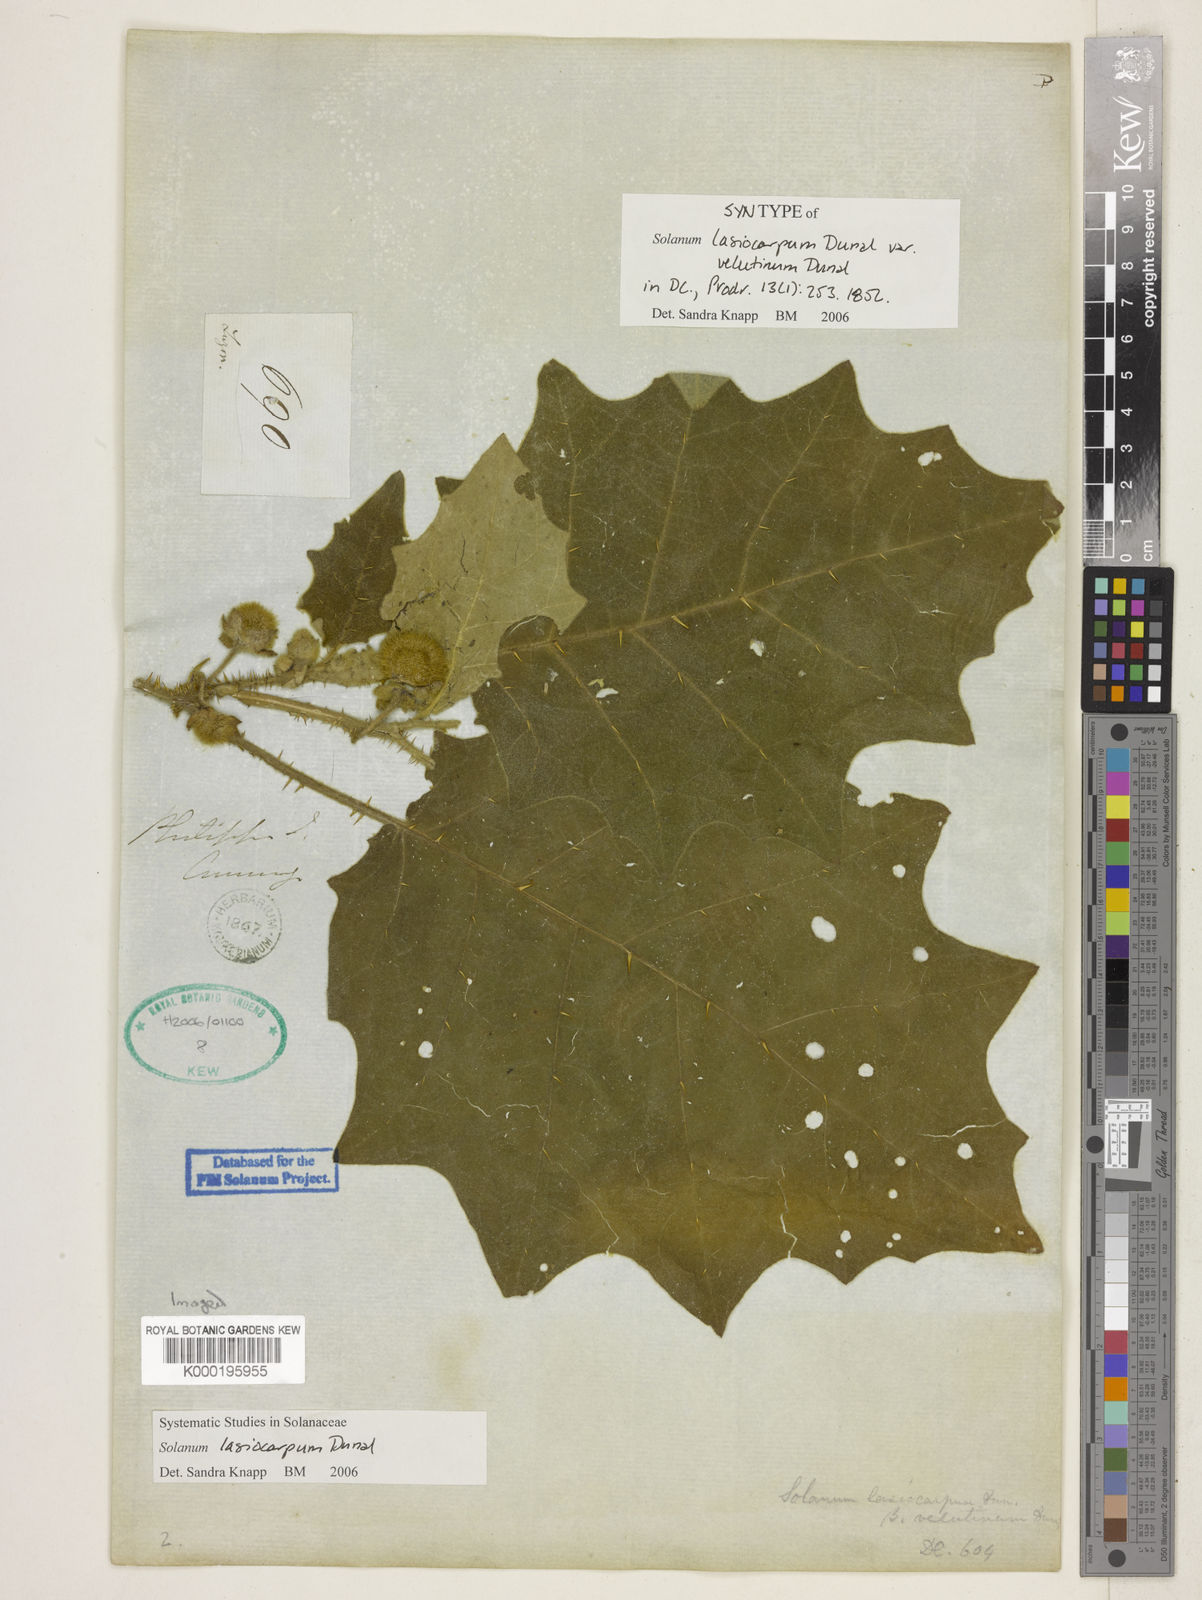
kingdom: Plantae
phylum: Tracheophyta
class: Magnoliopsida
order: Solanales
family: Solanaceae
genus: Solanum
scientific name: Solanum lasiocarpum
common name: Indian nightshade
